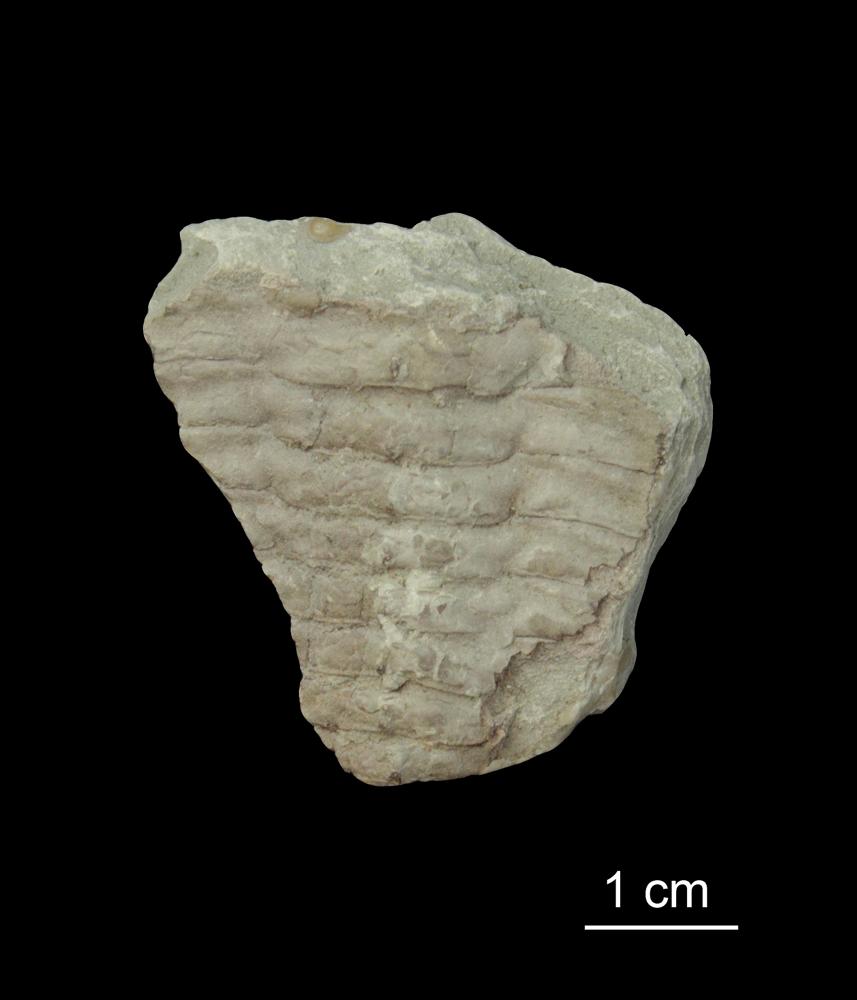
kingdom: Animalia
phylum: Arthropoda
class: Trilobita
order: Redlichiida
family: Holmiidae
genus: Schmidtiellus
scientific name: Schmidtiellus Olenellus mickwitzi
